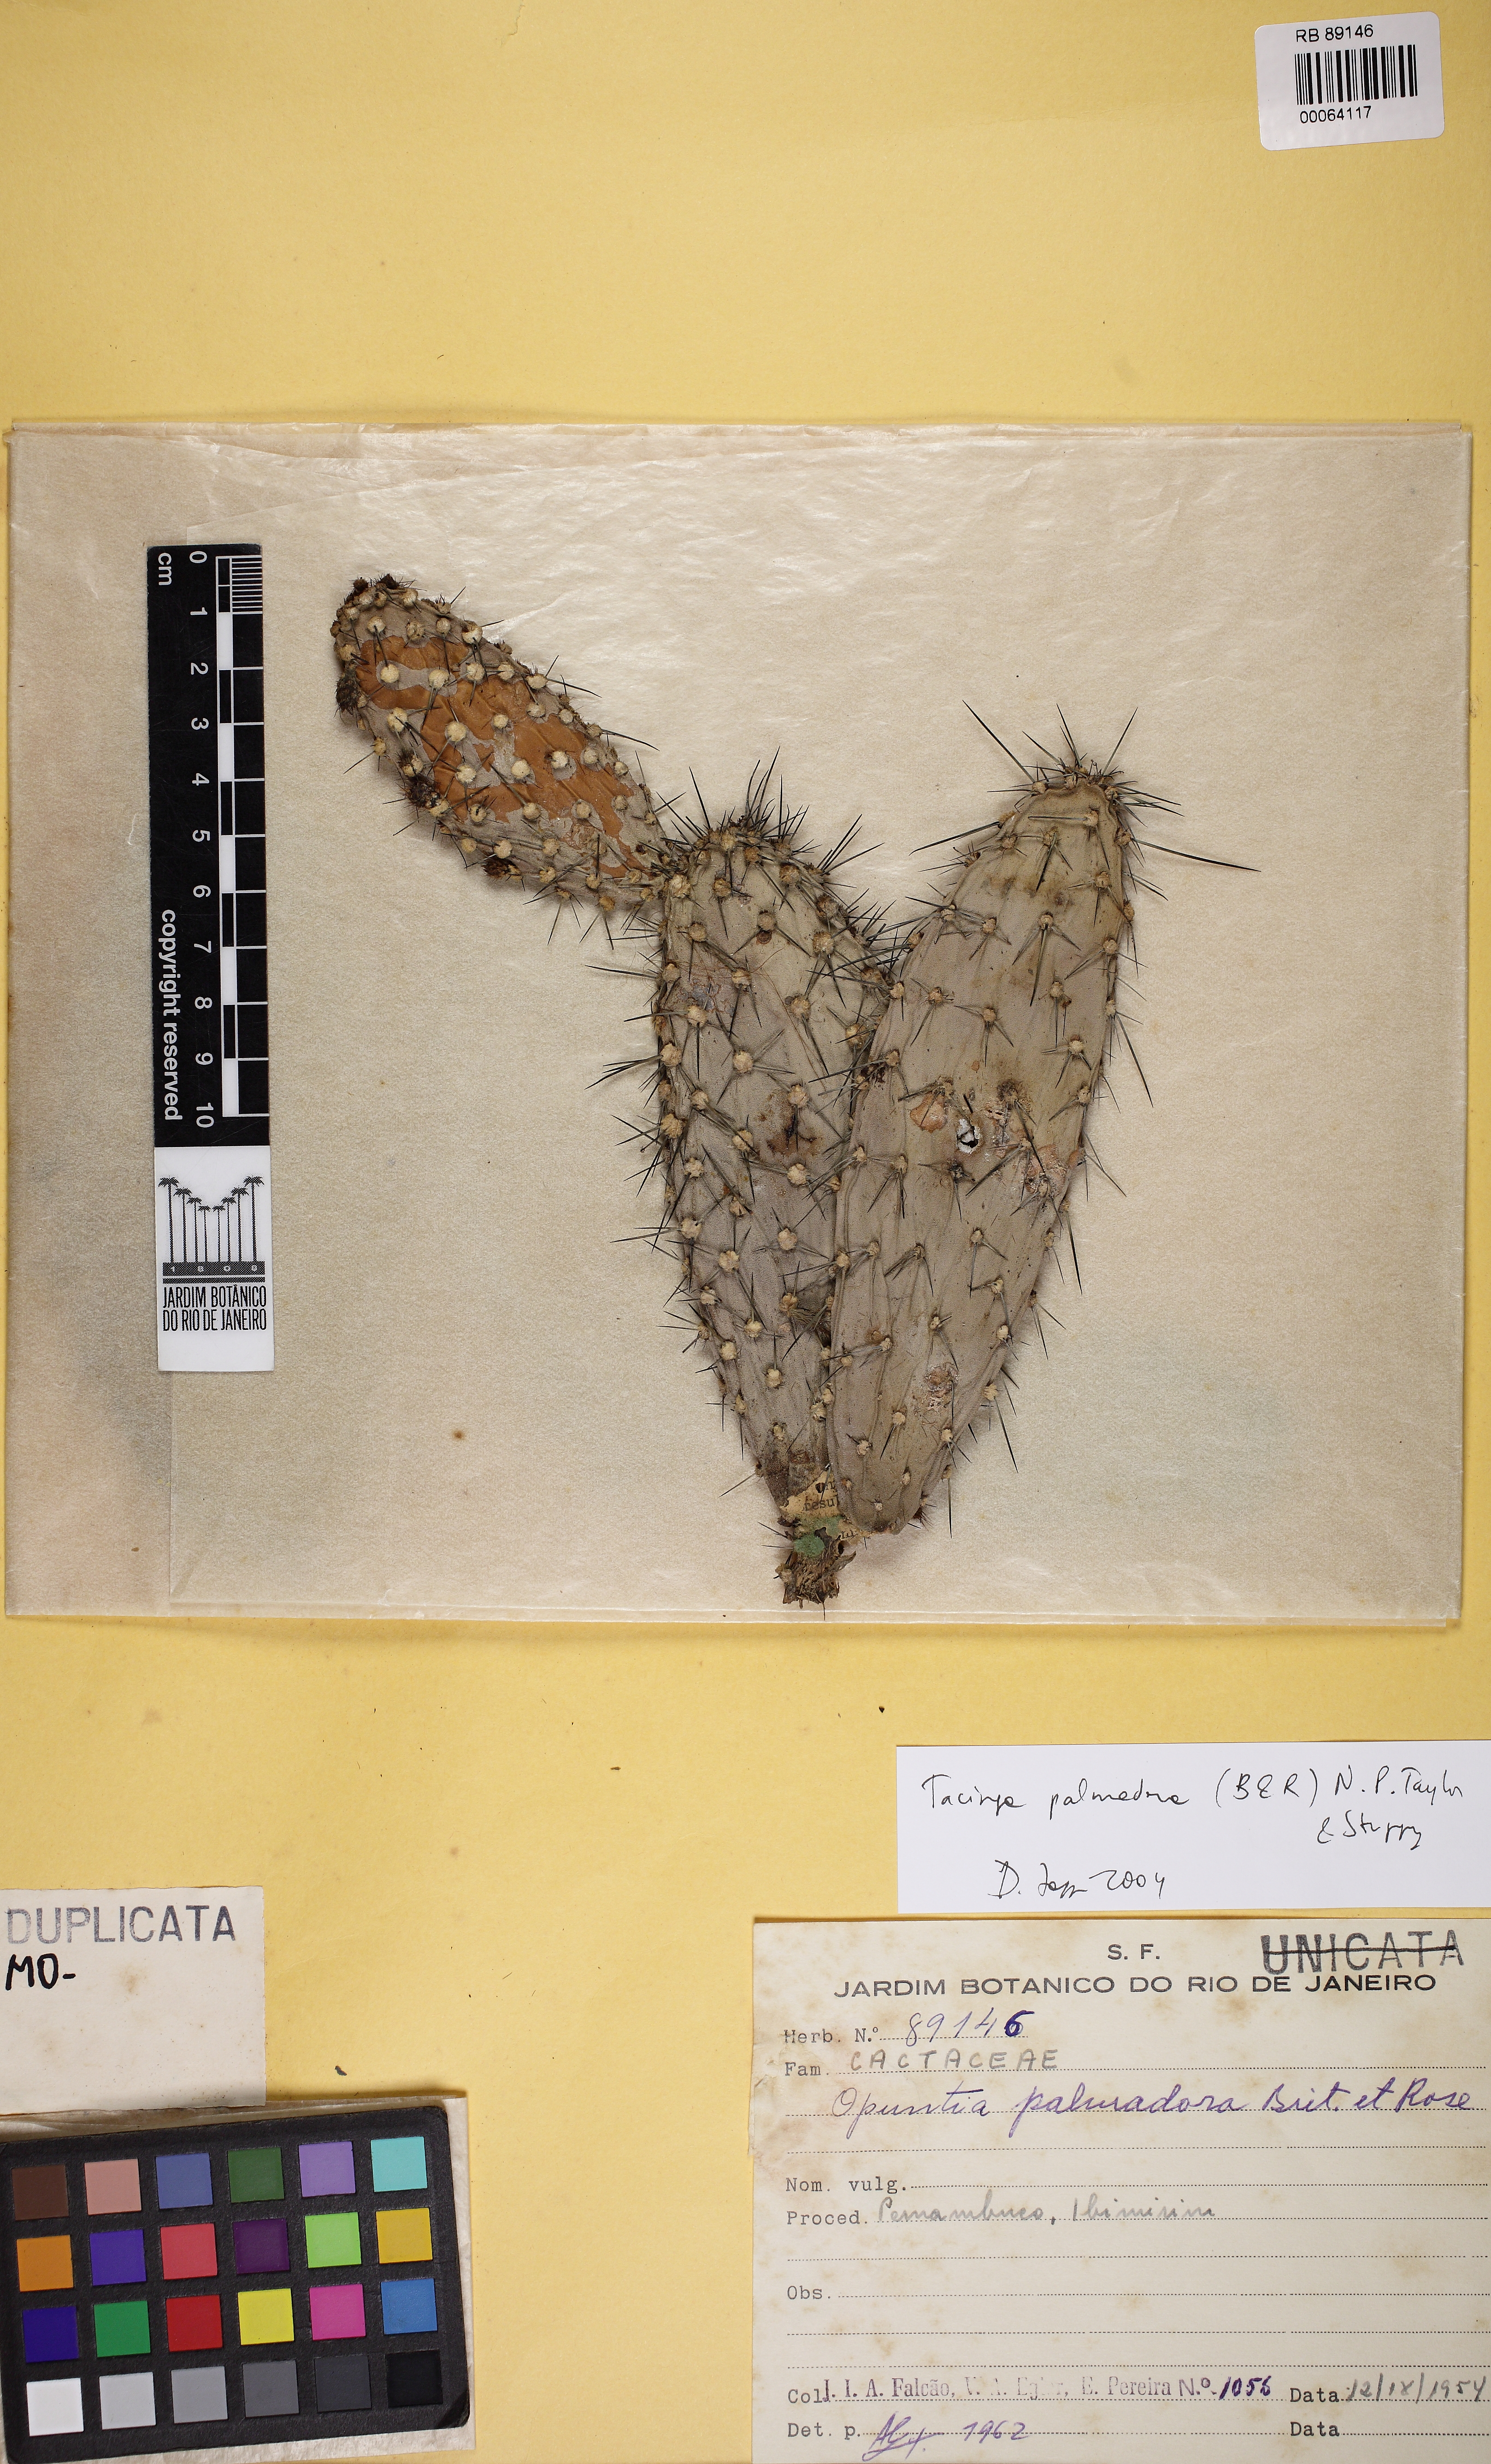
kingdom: Plantae
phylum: Tracheophyta
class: Magnoliopsida
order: Caryophyllales
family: Cactaceae
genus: Tacinga
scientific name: Tacinga palmadora
